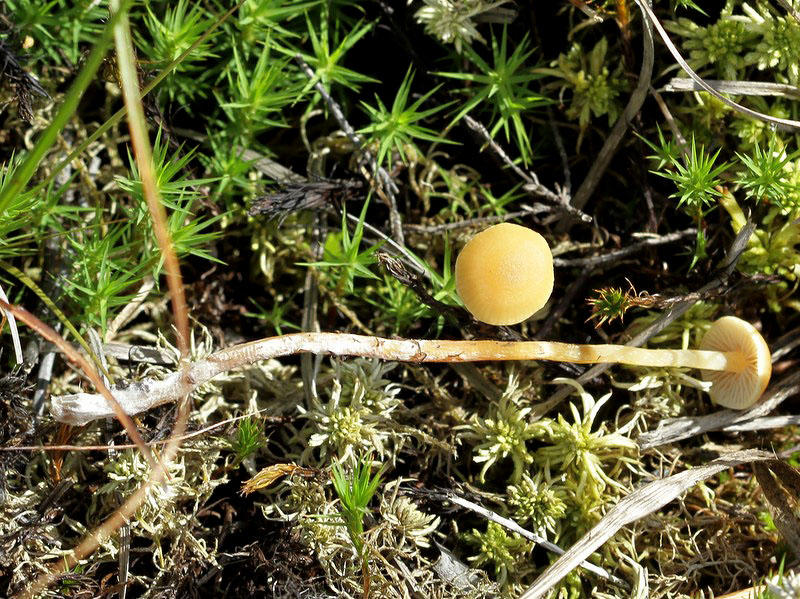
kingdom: Fungi
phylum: Basidiomycota
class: Agaricomycetes
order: Agaricales
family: Strophariaceae
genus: Hypholoma
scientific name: Hypholoma elongatum
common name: slank svovlhat
